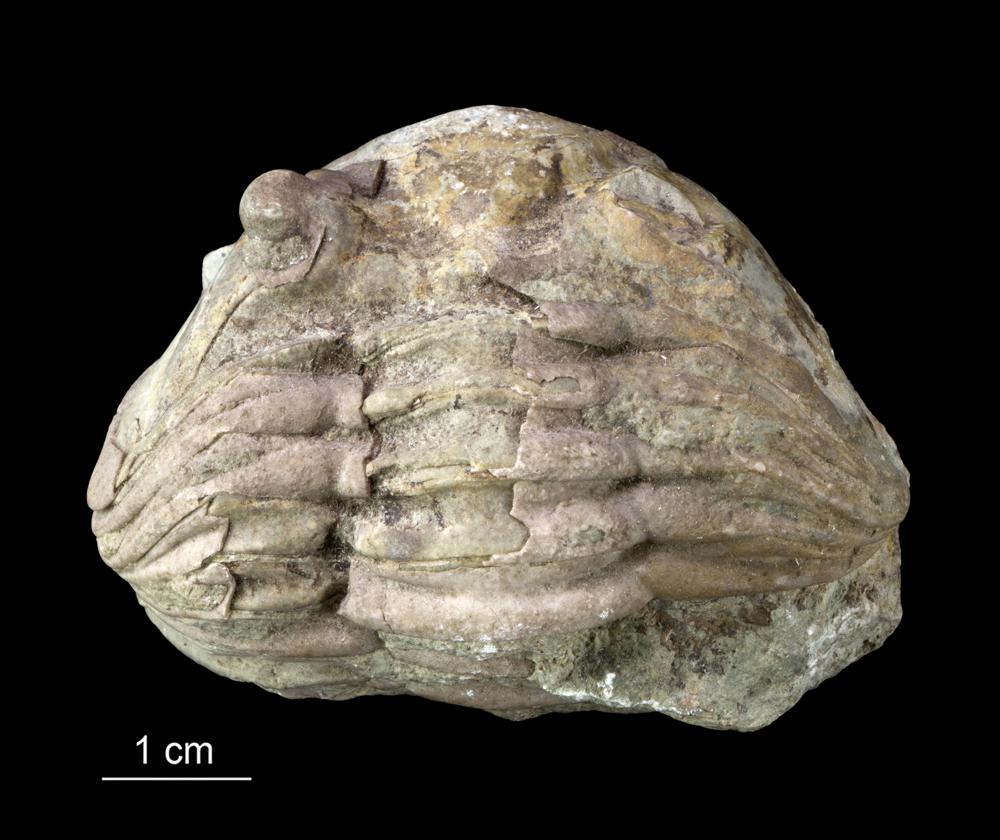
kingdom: Animalia
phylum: Arthropoda
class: Trilobita
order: Asaphida
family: Asaphidae
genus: Asaphus
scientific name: Asaphus expansus
